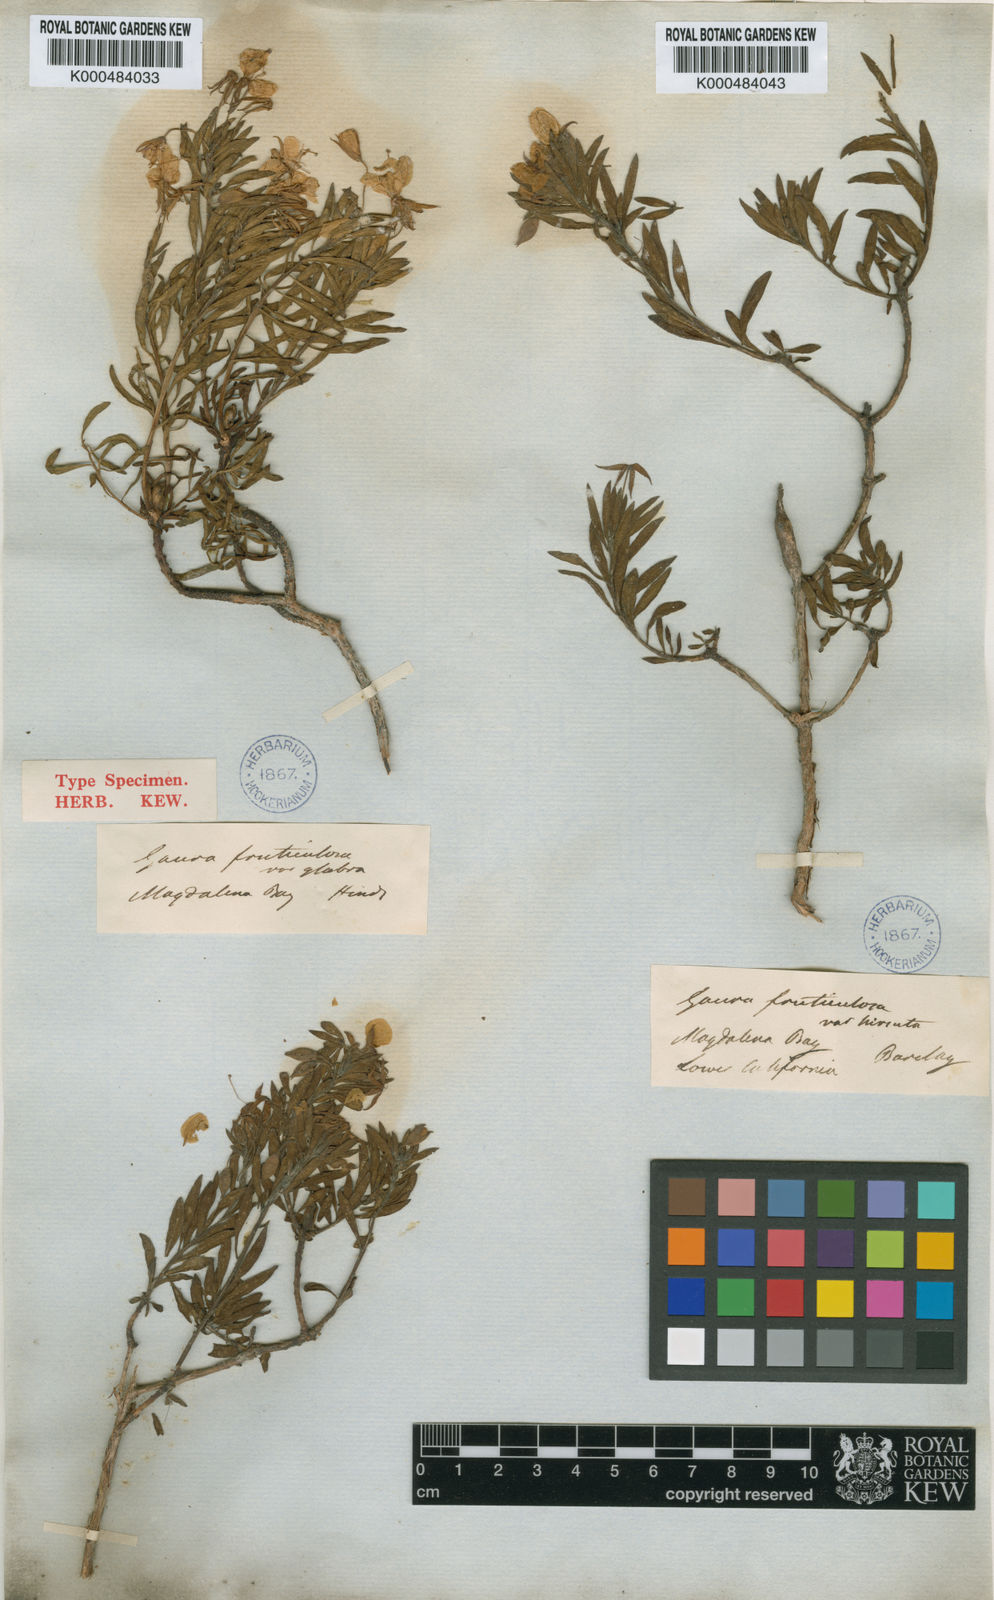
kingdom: Plantae
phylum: Tracheophyta
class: Magnoliopsida
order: Myrtales
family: Onagraceae
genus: Gongylocarpus
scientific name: Gongylocarpus fruticulosus
